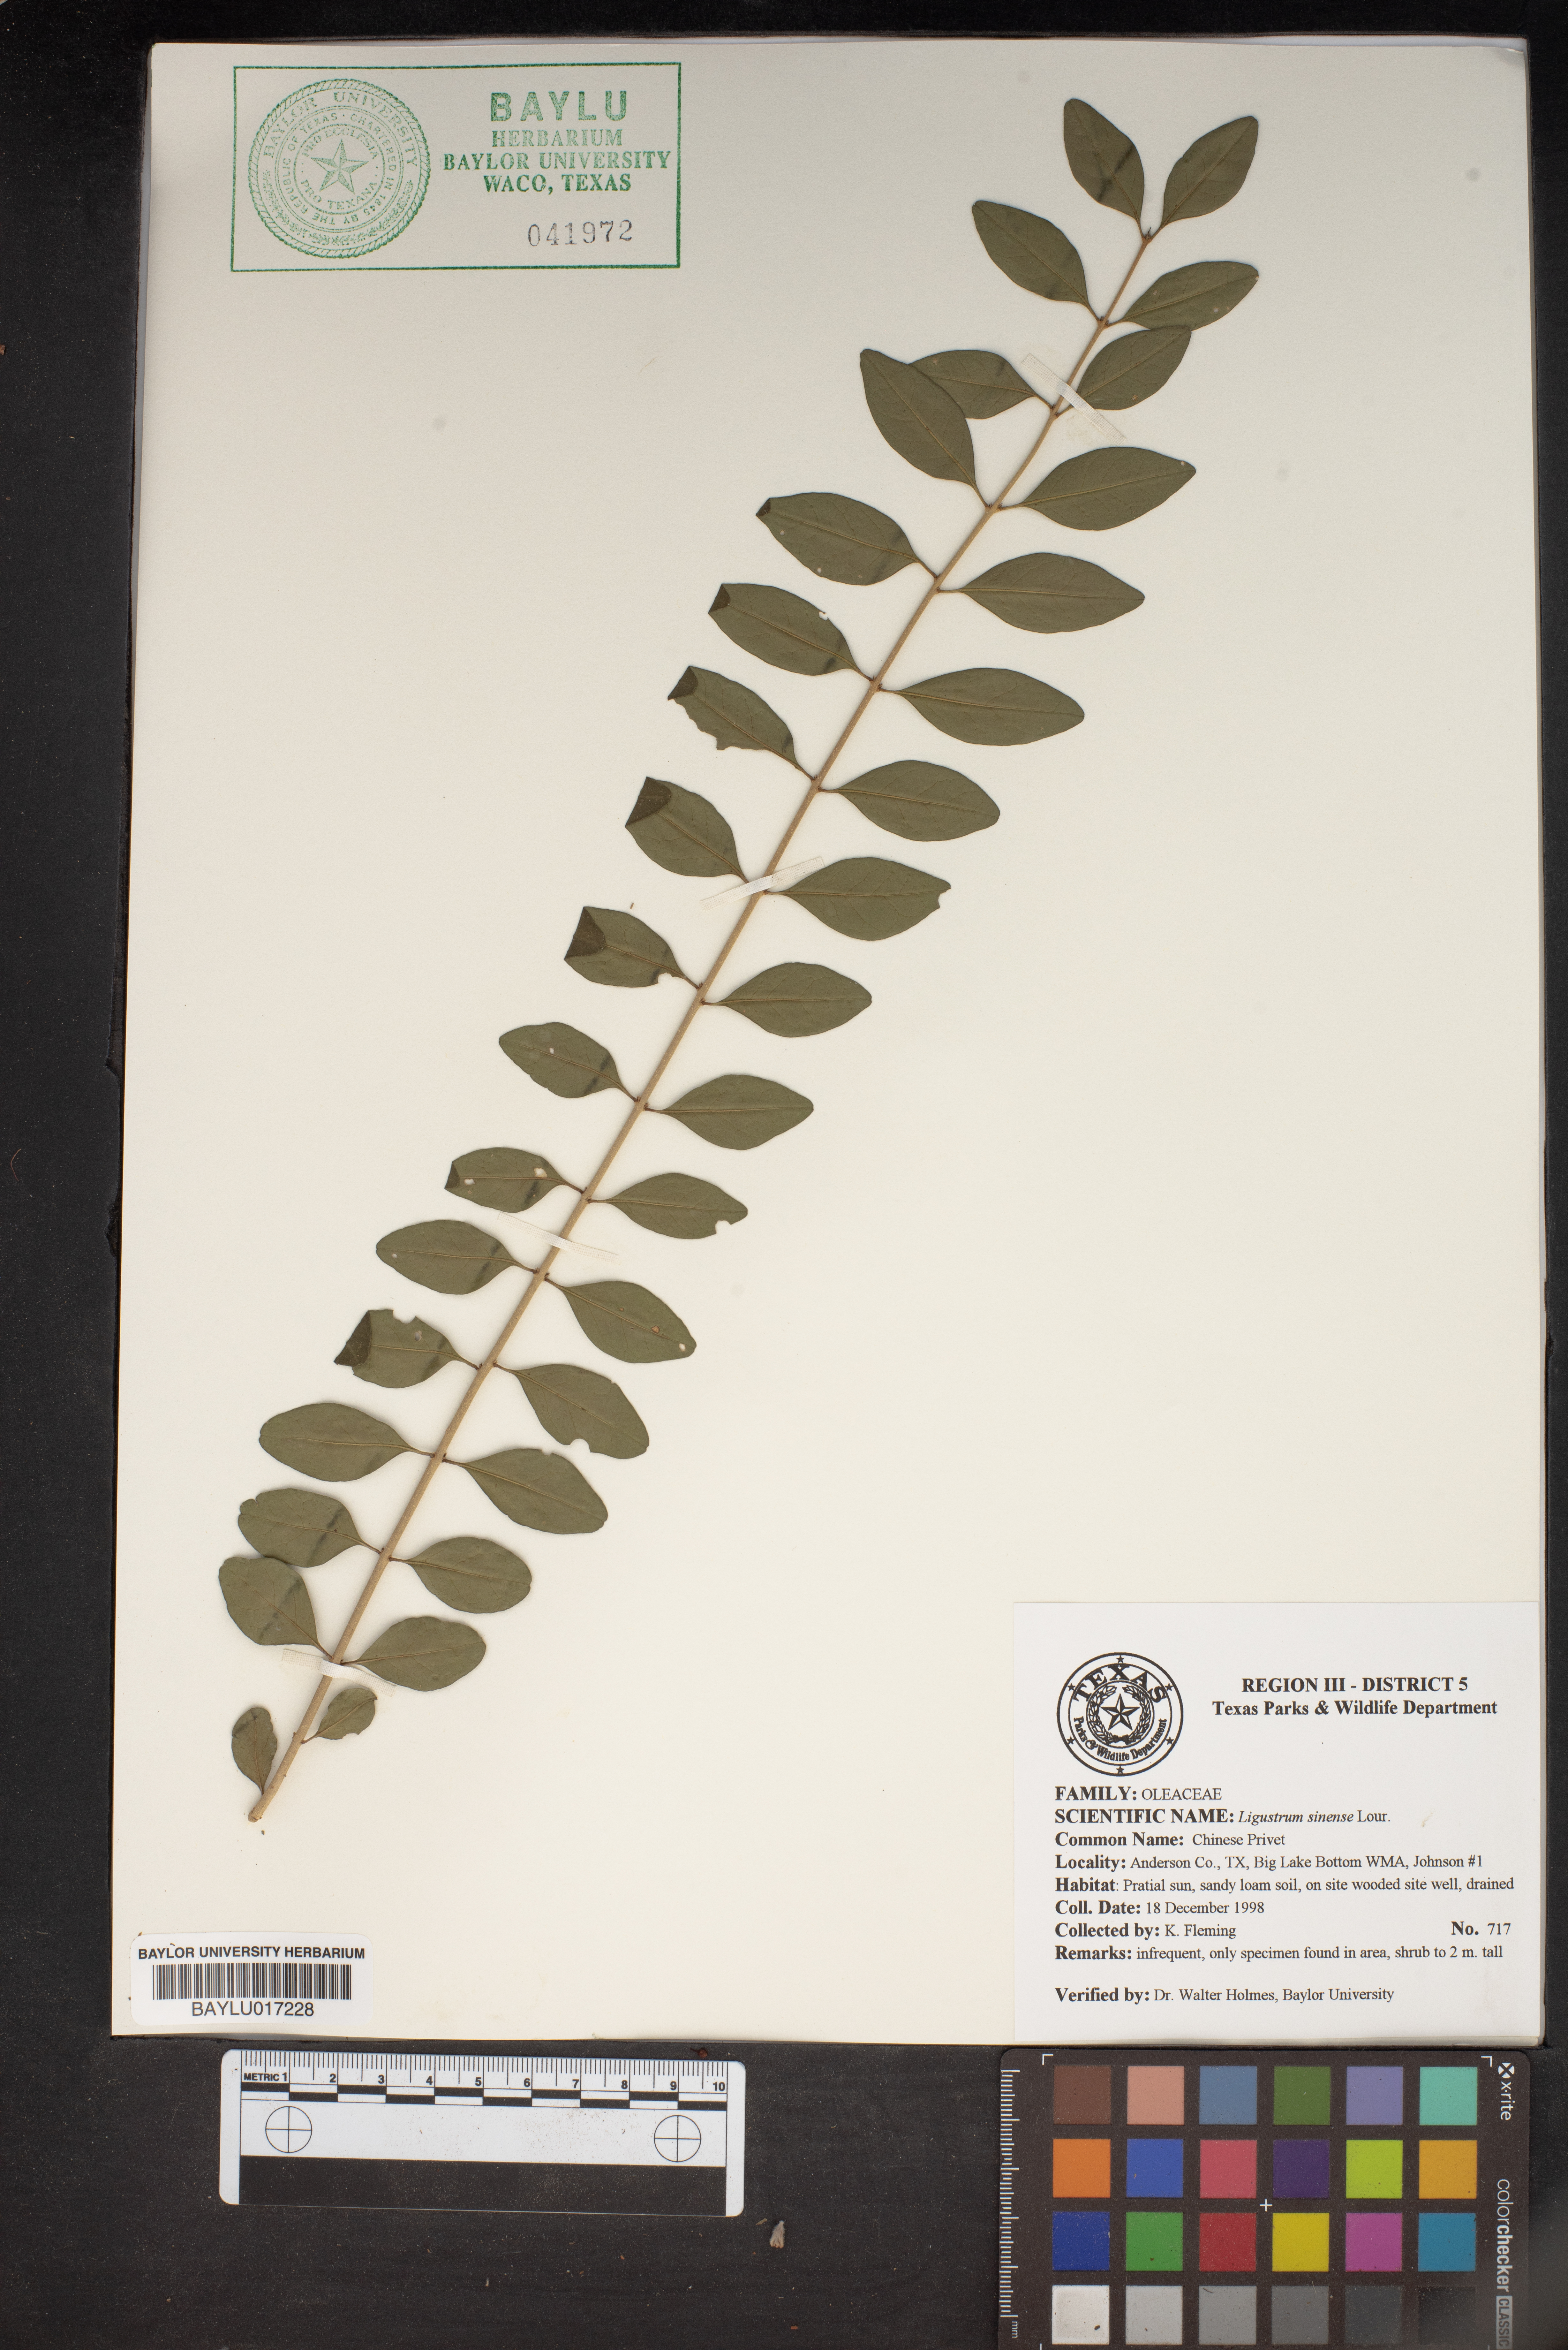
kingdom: Plantae
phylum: Tracheophyta
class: Magnoliopsida
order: Lamiales
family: Oleaceae
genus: Ligustrum
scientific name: Ligustrum sinense
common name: Chinese privet
